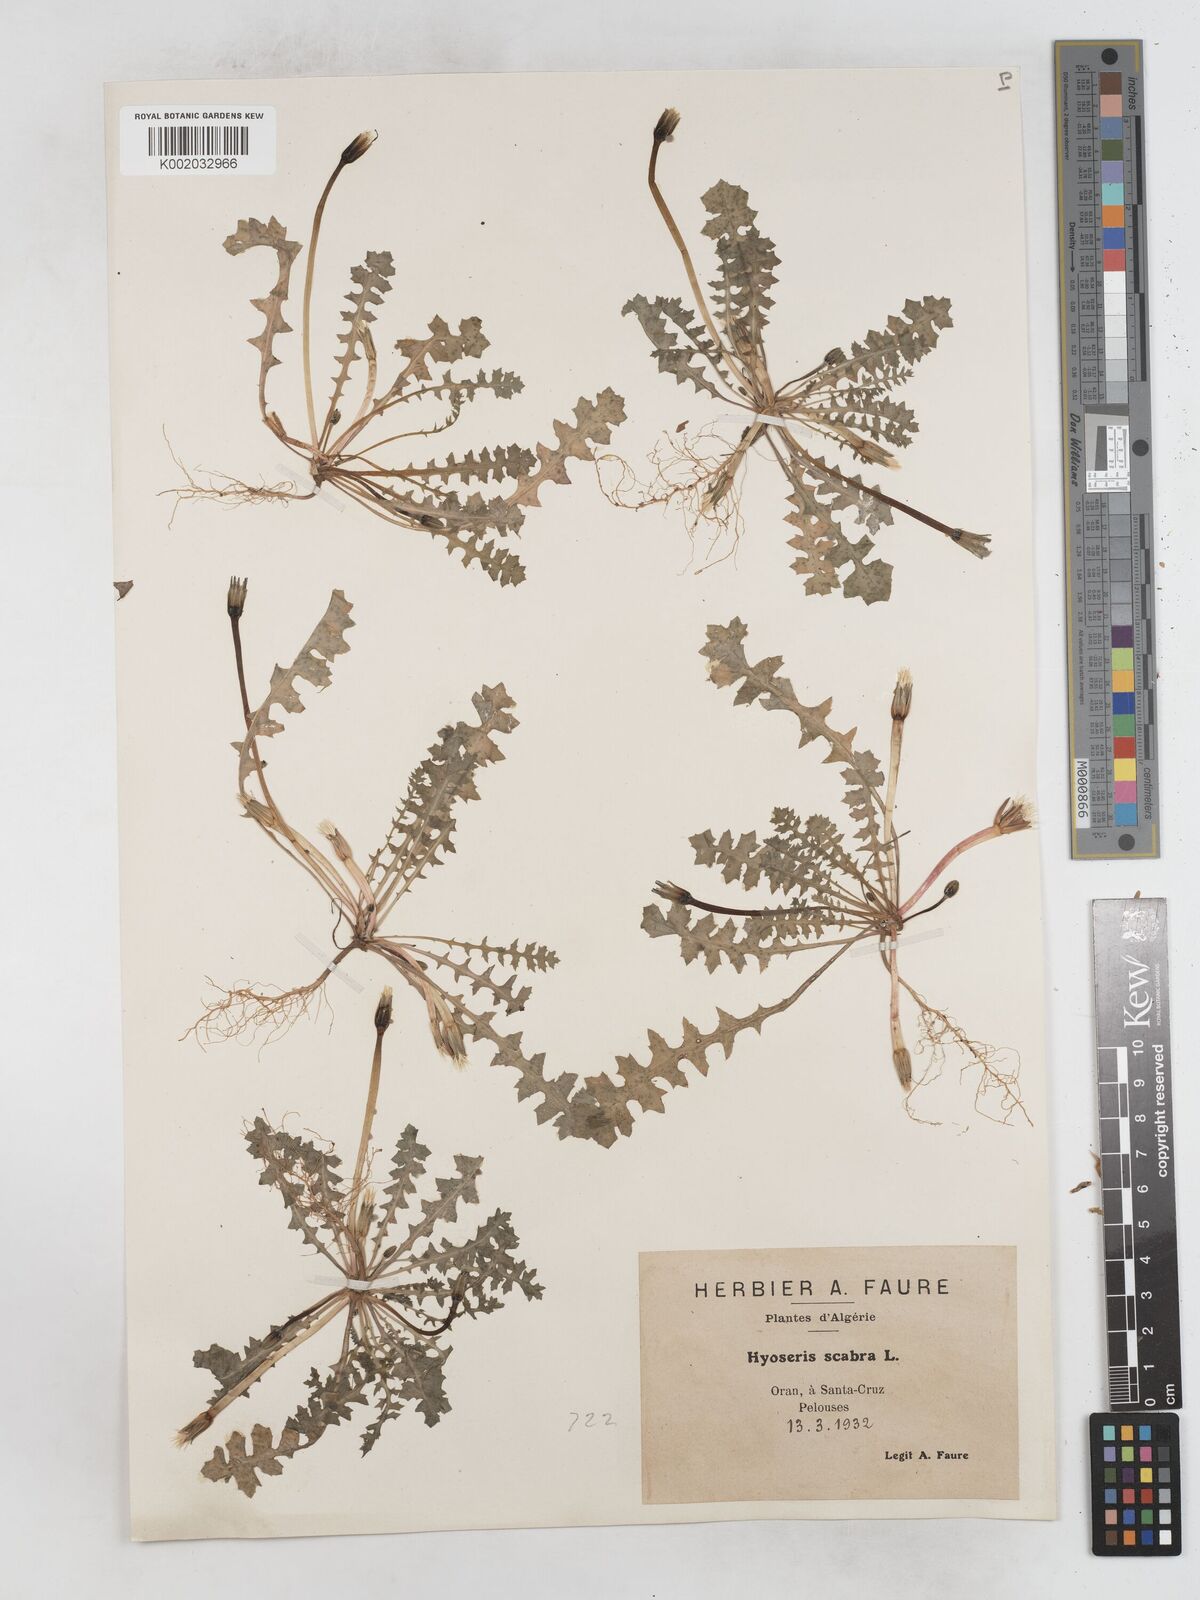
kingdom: Plantae
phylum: Tracheophyta
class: Magnoliopsida
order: Asterales
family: Asteraceae
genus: Hyoseris
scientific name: Hyoseris scabra
